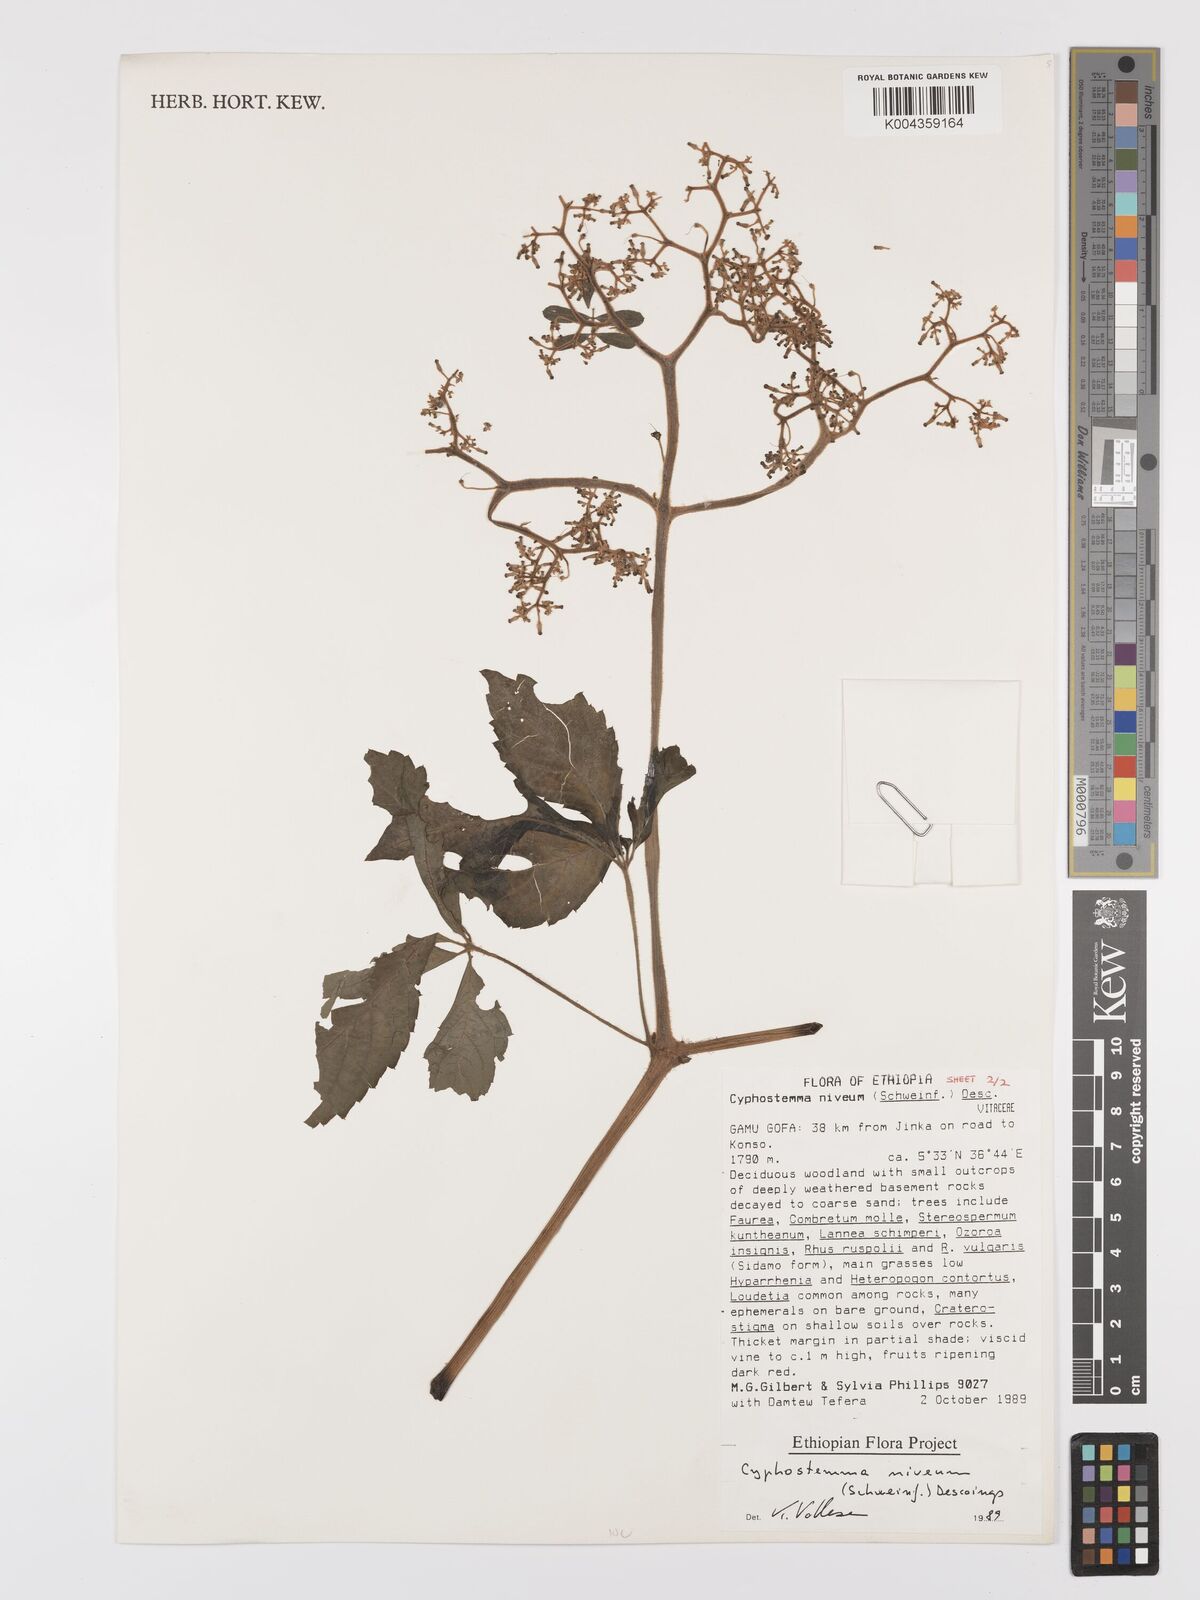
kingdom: Plantae
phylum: Tracheophyta
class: Magnoliopsida
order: Vitales
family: Vitaceae
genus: Cyphostemma
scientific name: Cyphostemma rivae
